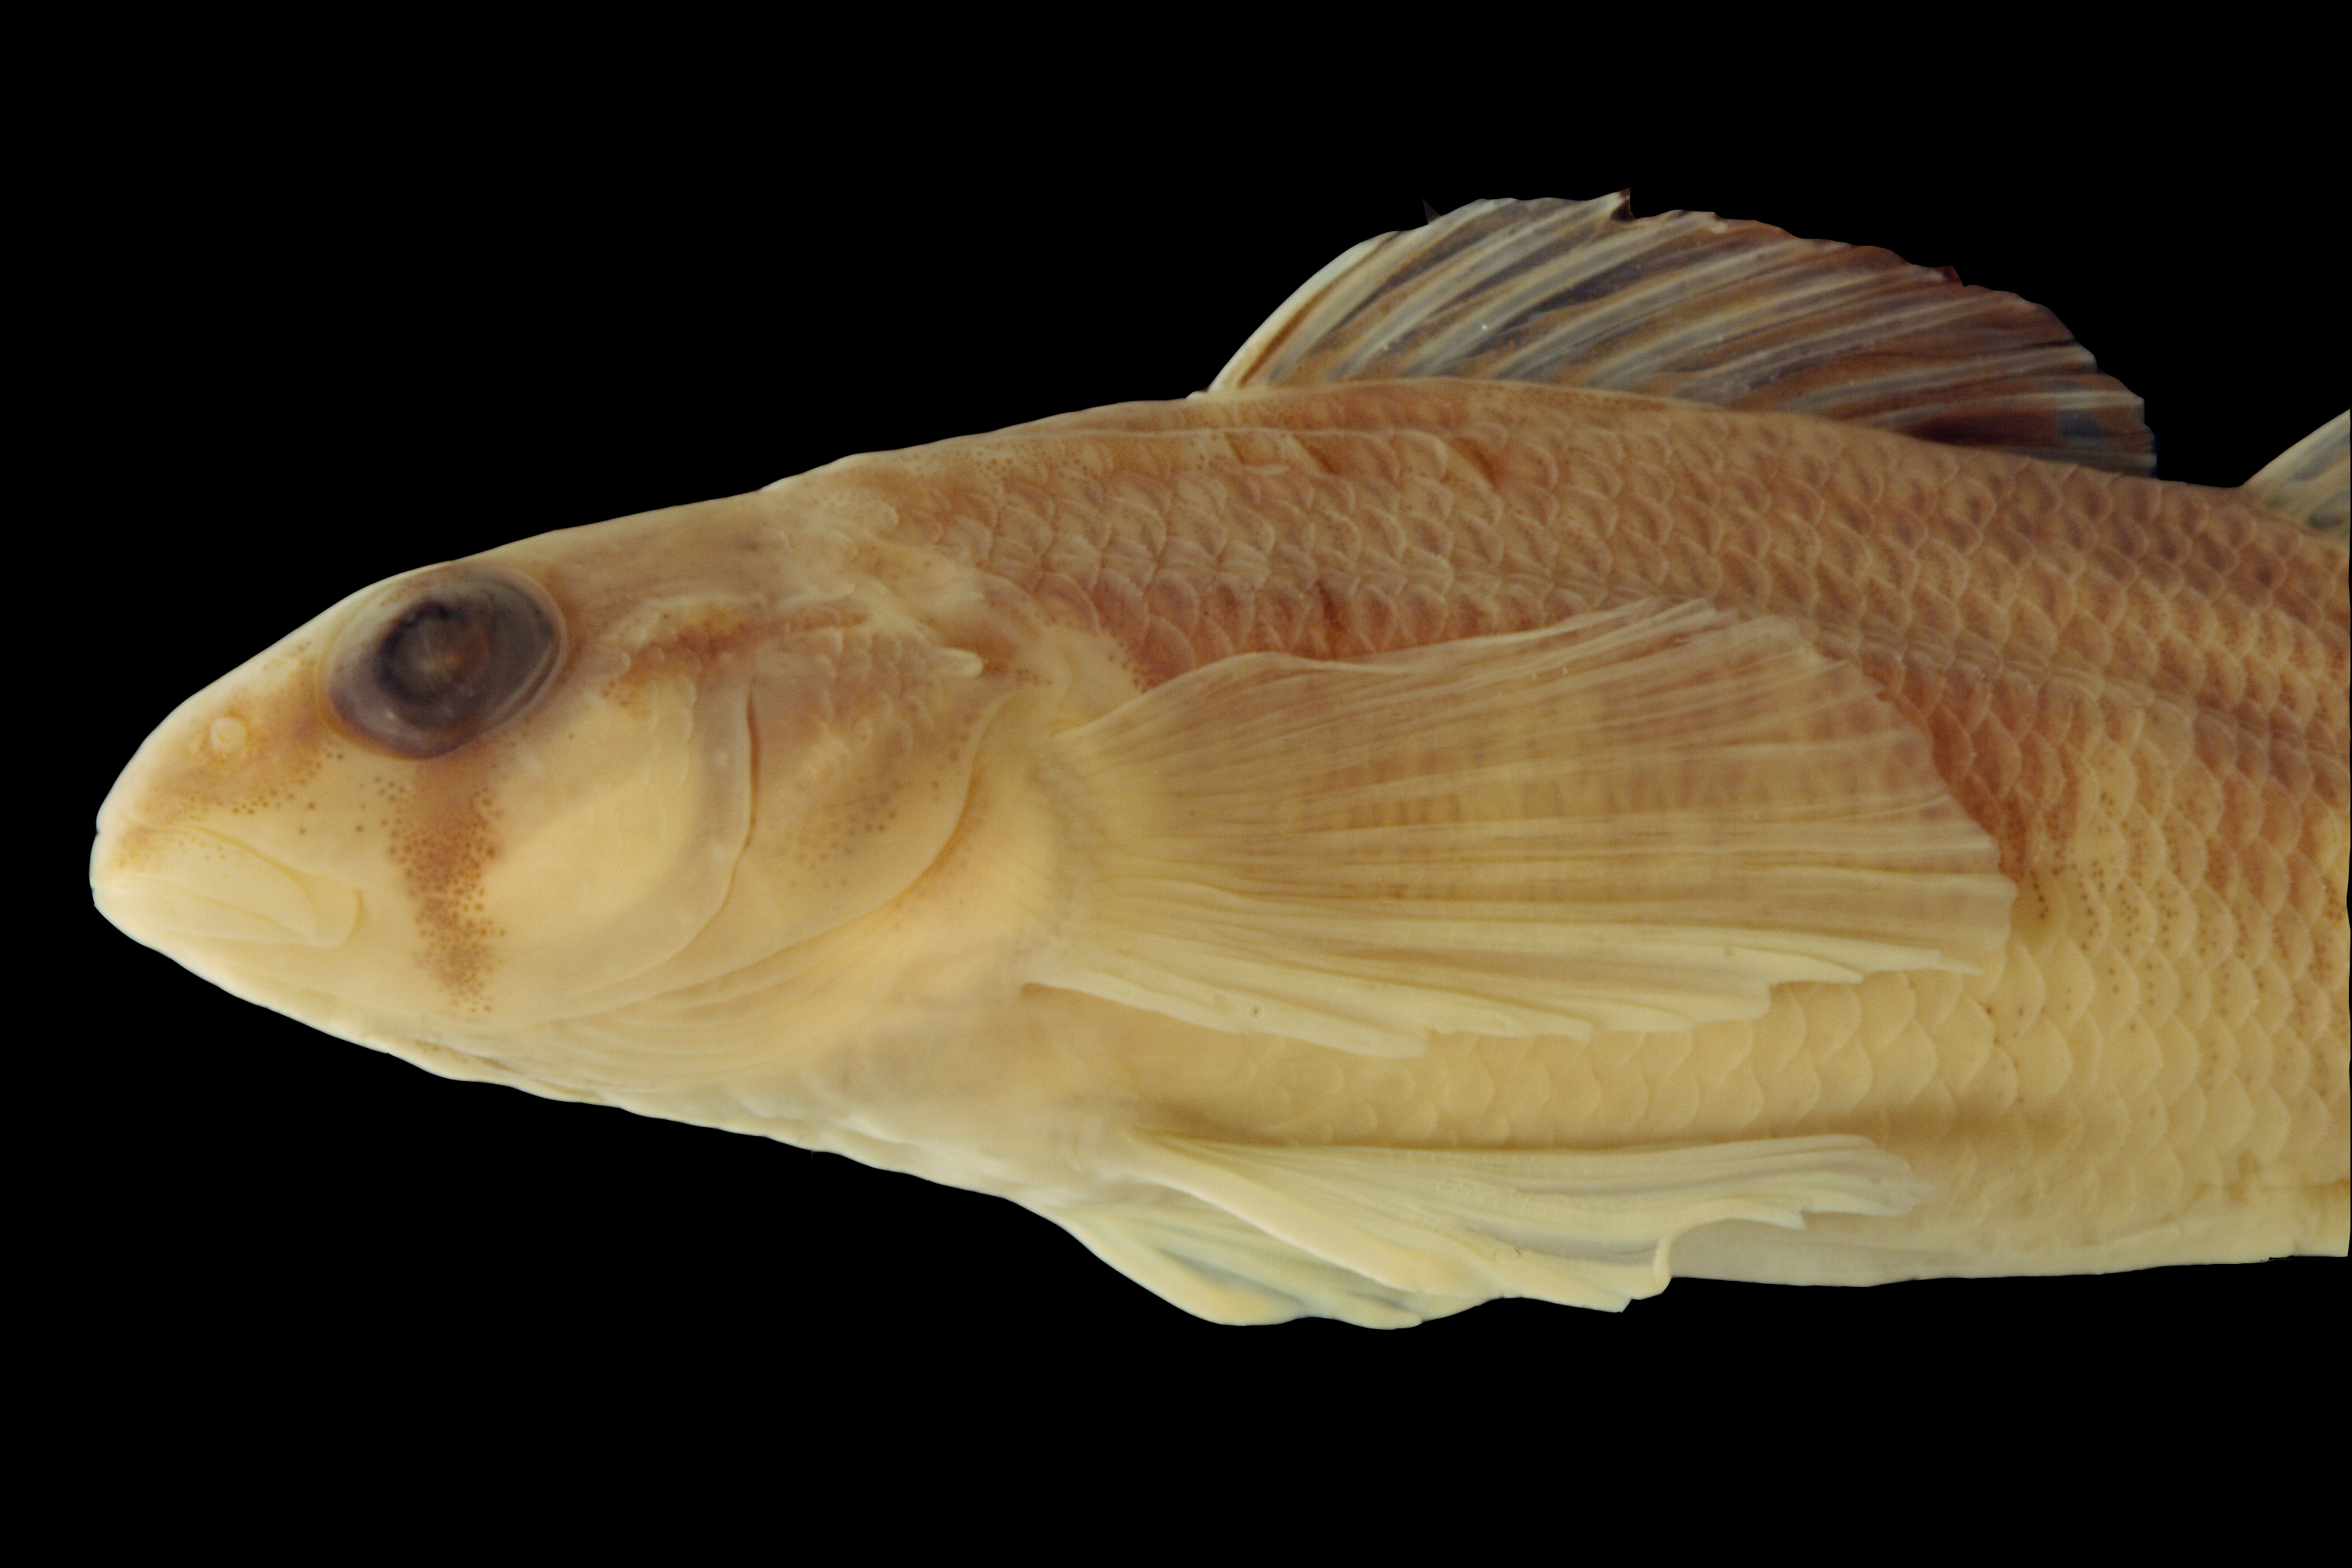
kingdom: Animalia
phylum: Chordata
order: Perciformes
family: Percidae
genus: Percina
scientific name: Percina shumardi
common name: River darter
